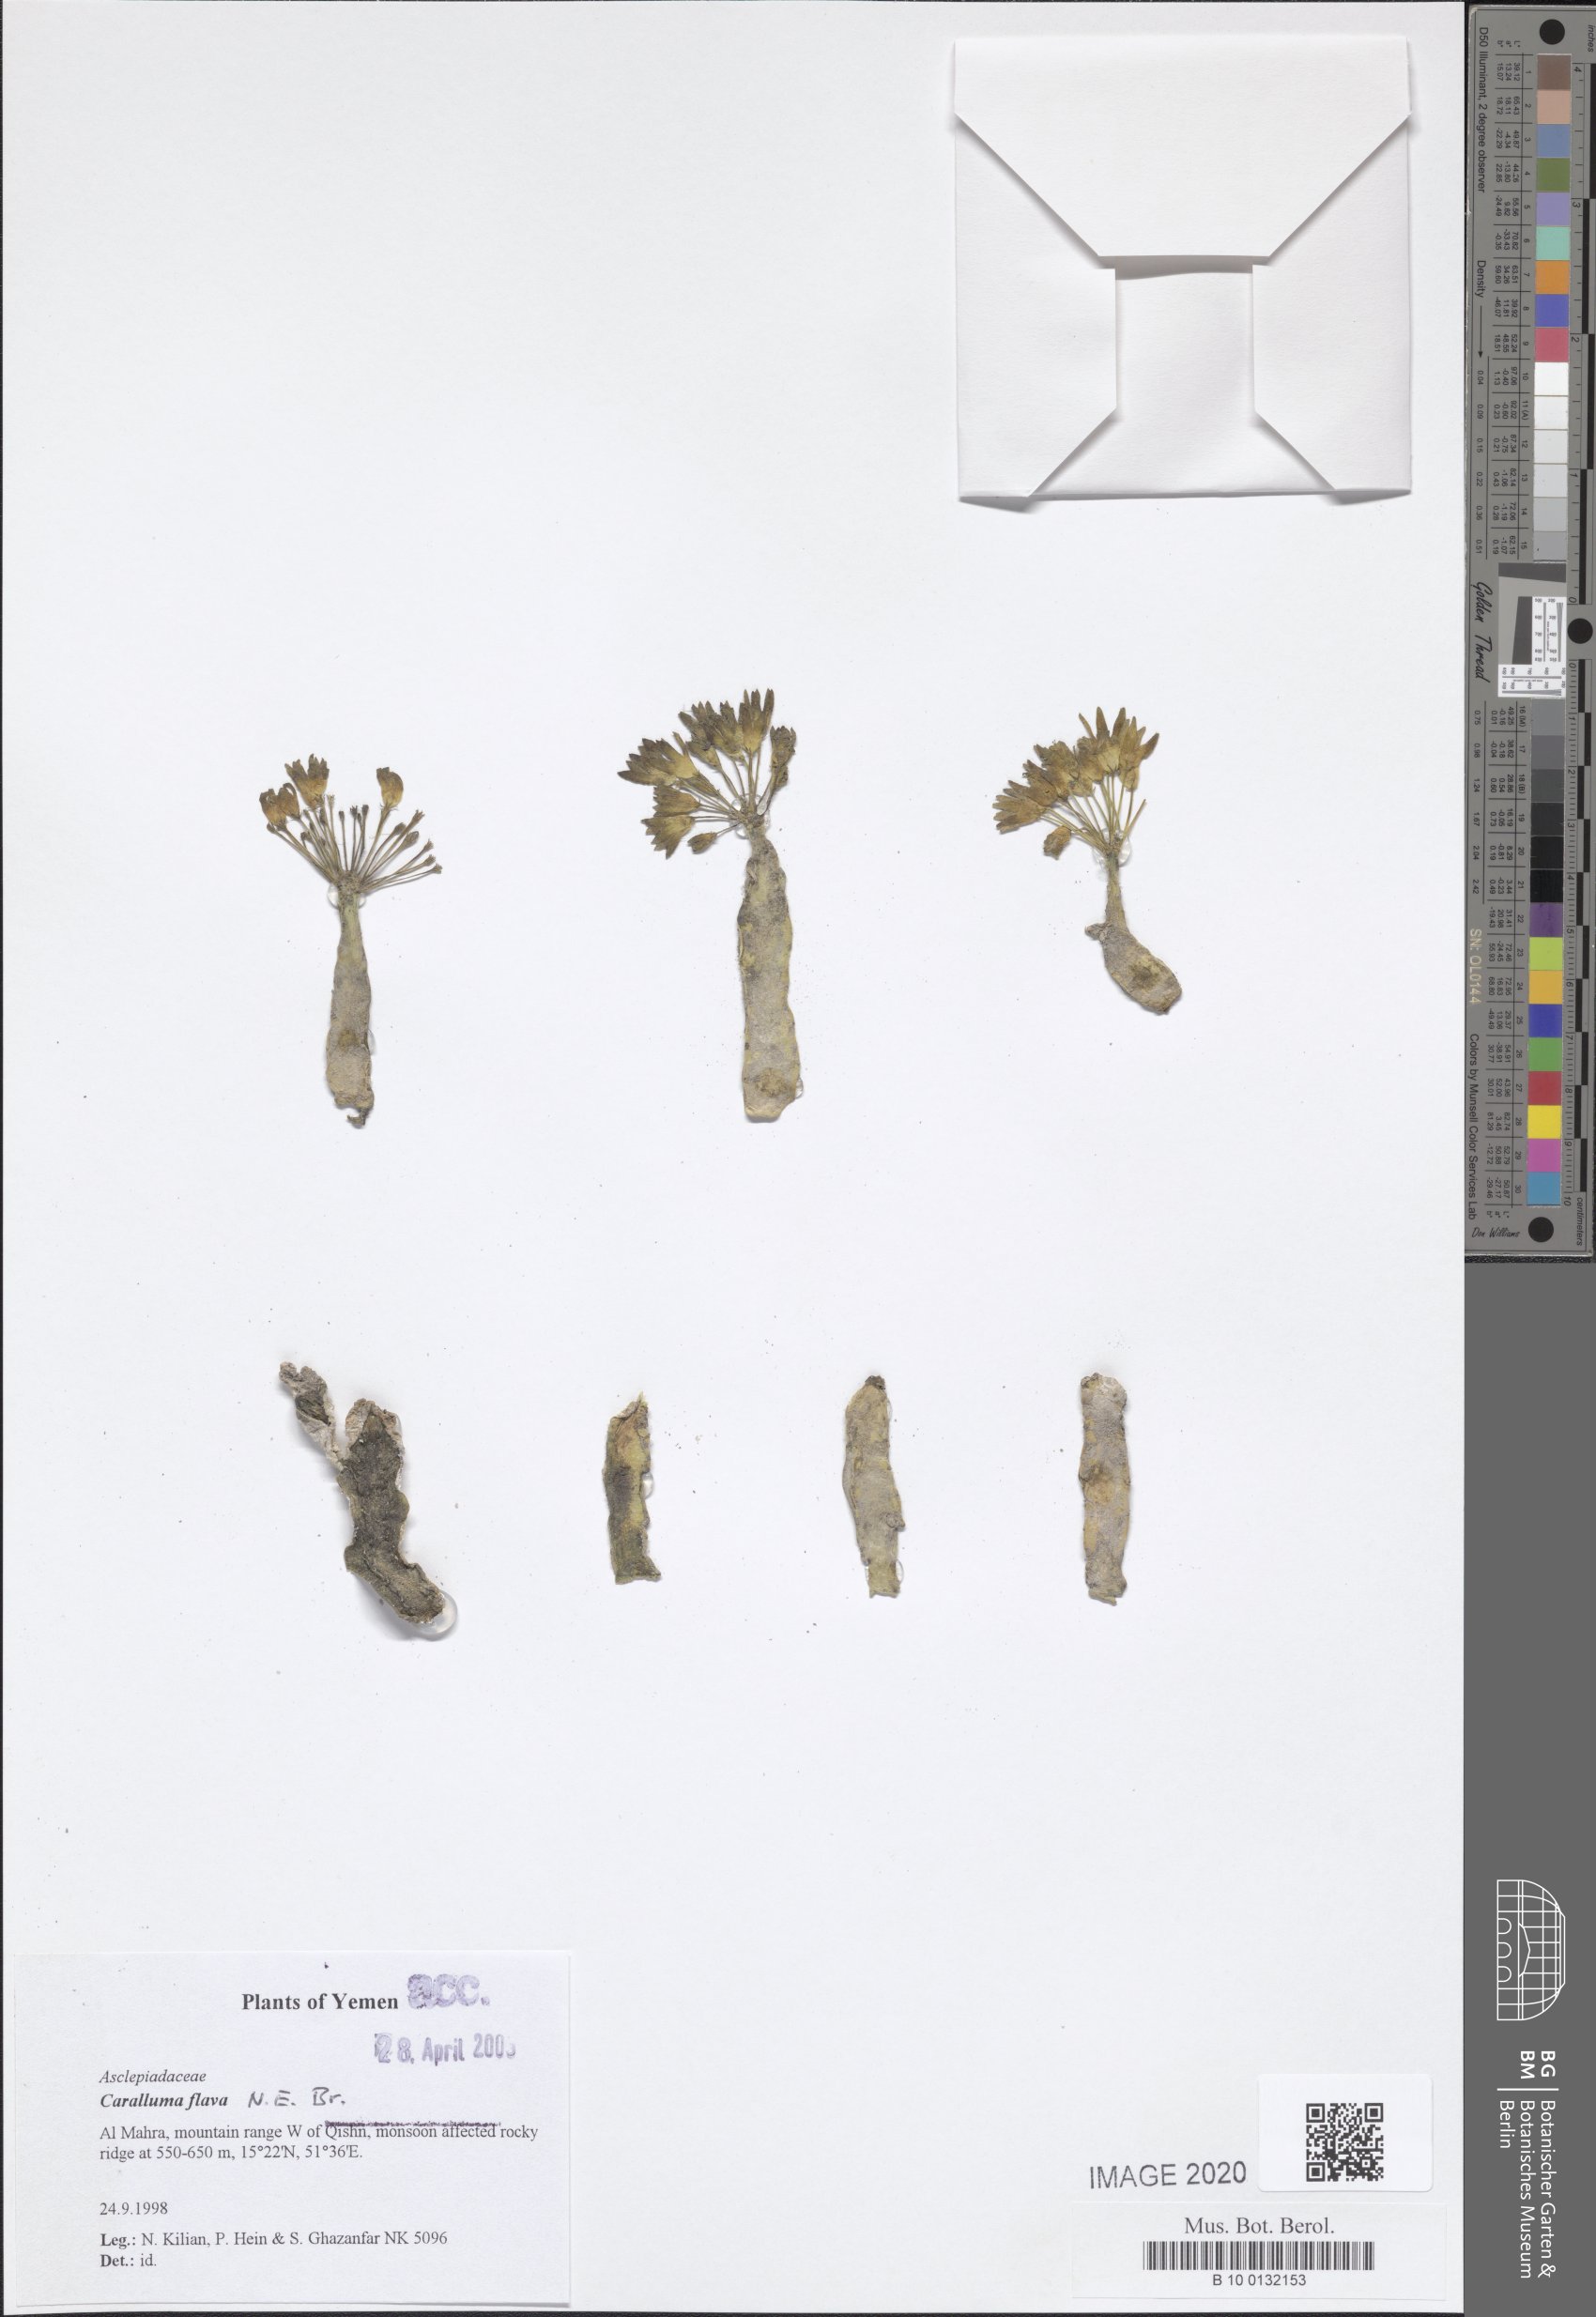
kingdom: Plantae
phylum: Tracheophyta
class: Magnoliopsida
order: Gentianales
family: Apocynaceae
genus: Ceropegia
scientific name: Ceropegia flava
